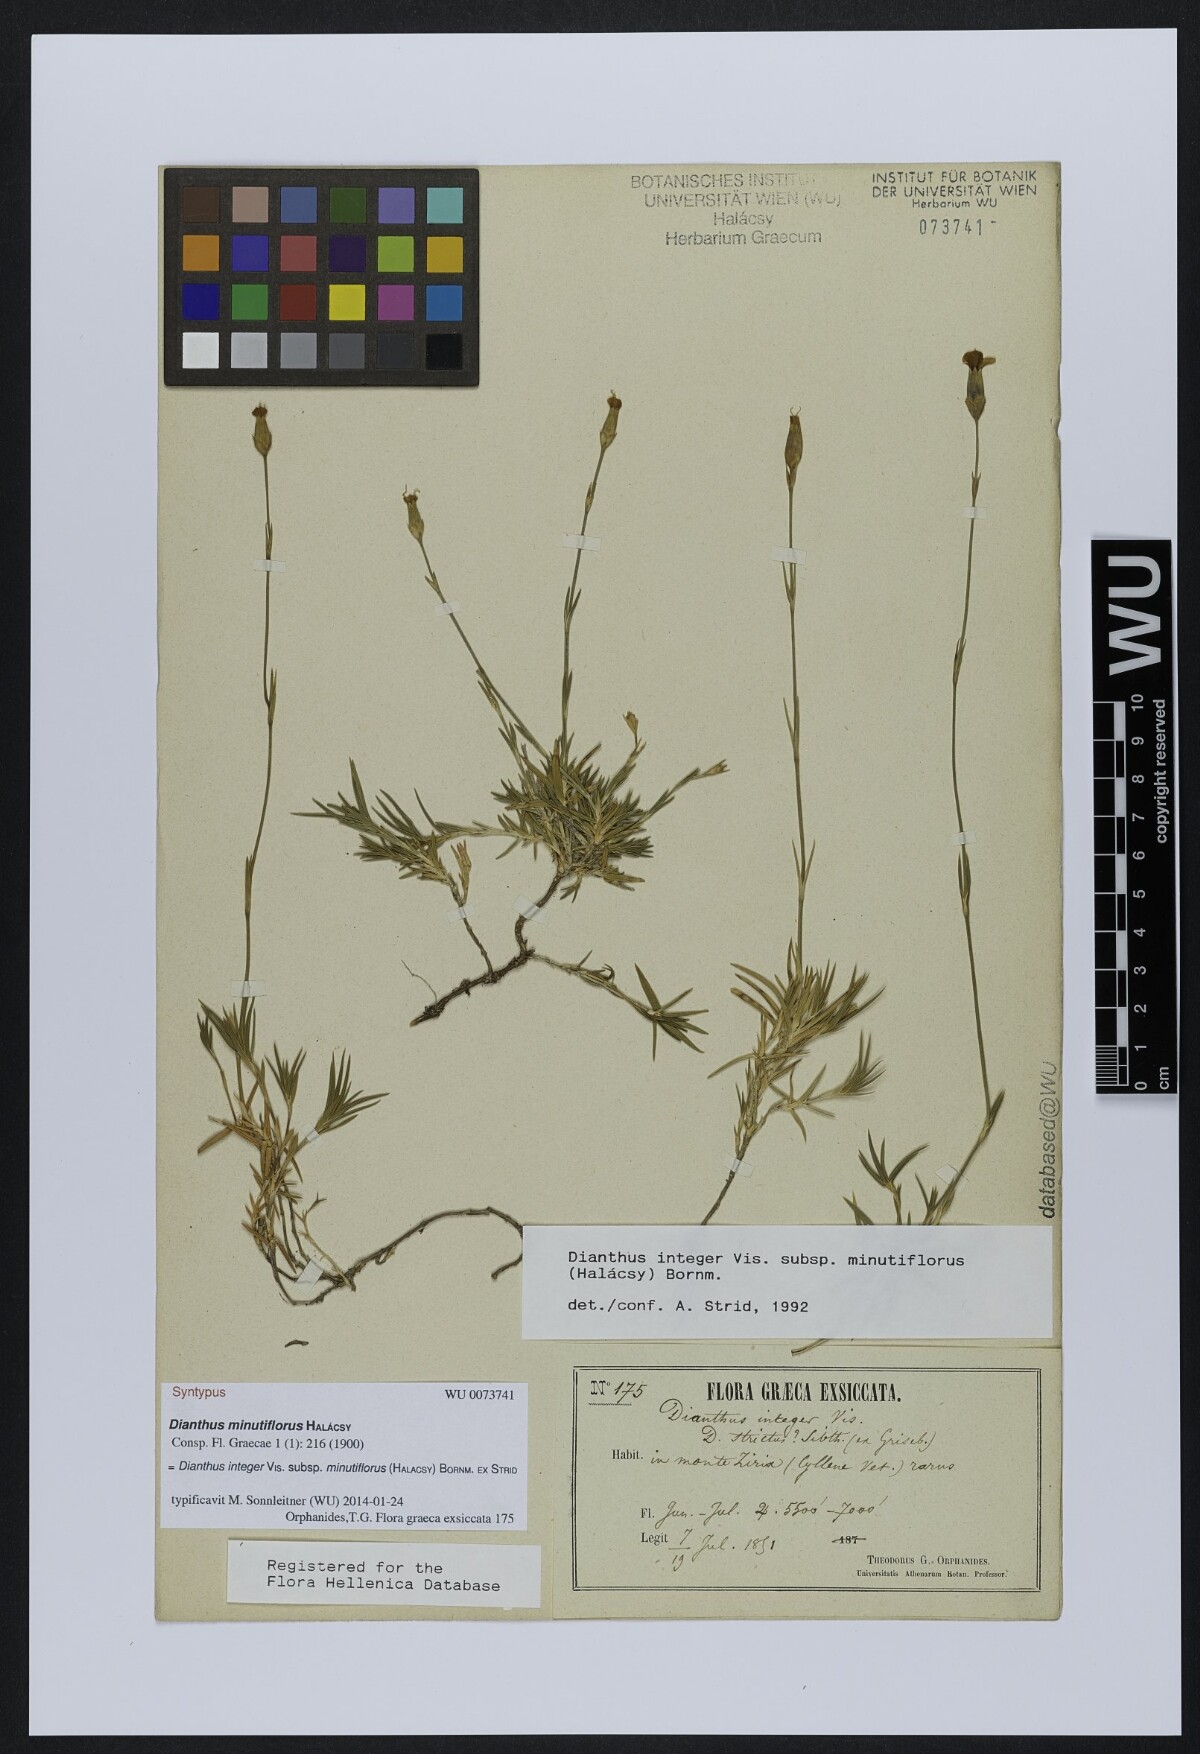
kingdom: Plantae
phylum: Tracheophyta
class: Magnoliopsida
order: Caryophyllales
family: Caryophyllaceae
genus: Dianthus
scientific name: Dianthus integer
